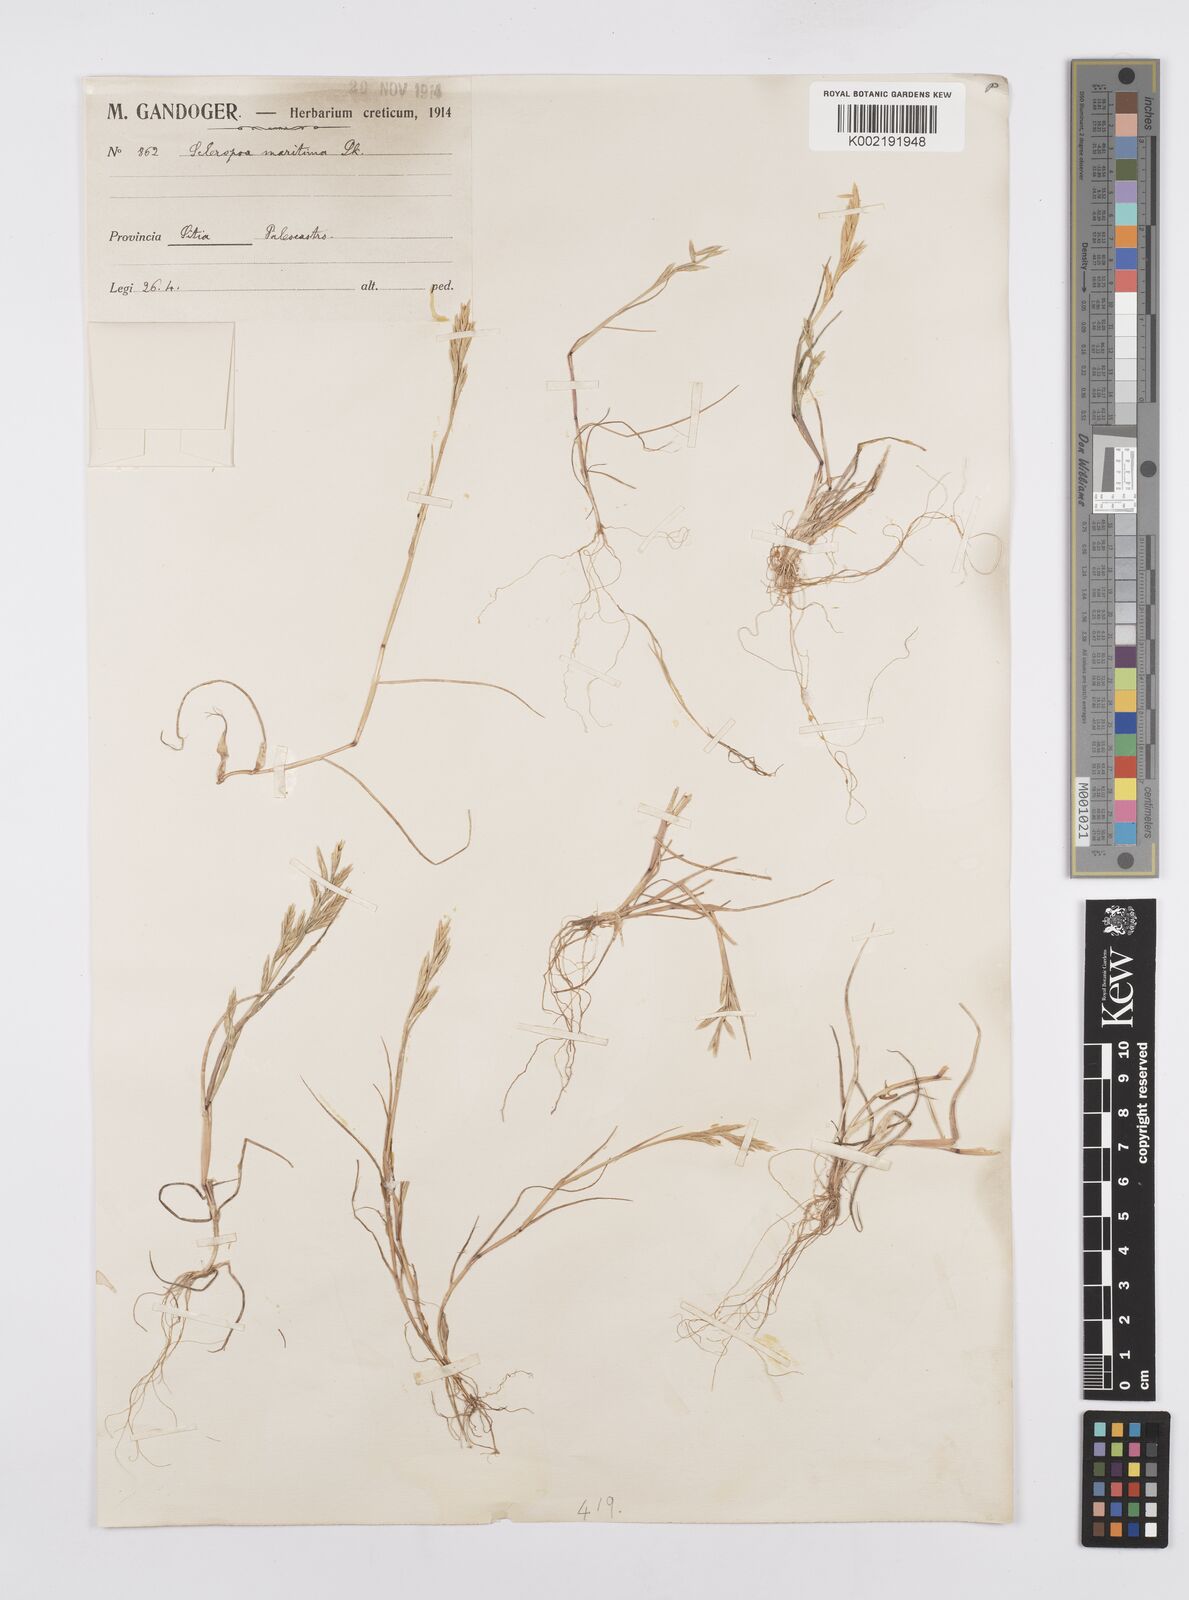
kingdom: Plantae
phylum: Tracheophyta
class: Liliopsida
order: Poales
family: Poaceae
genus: Cutandia
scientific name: Cutandia maritima
